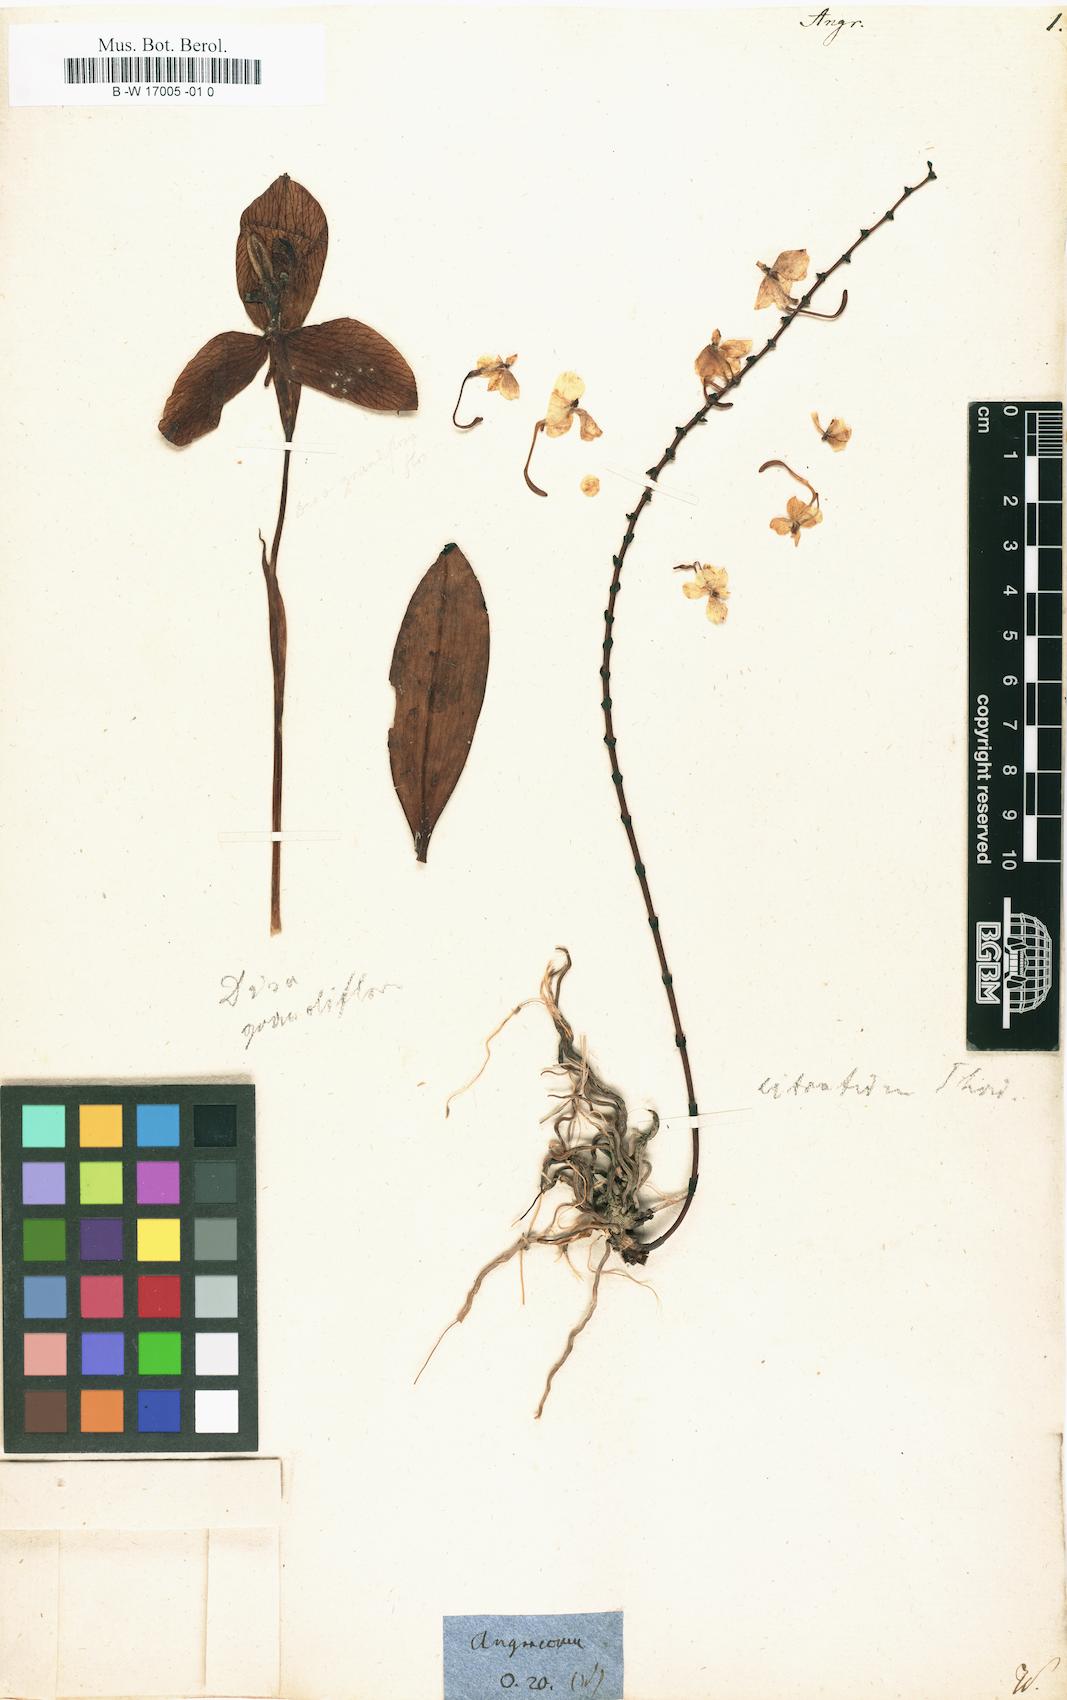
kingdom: Plantae
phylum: Tracheophyta
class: Liliopsida
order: Asparagales
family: Orchidaceae
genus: Angraecum
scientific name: Angraecum
